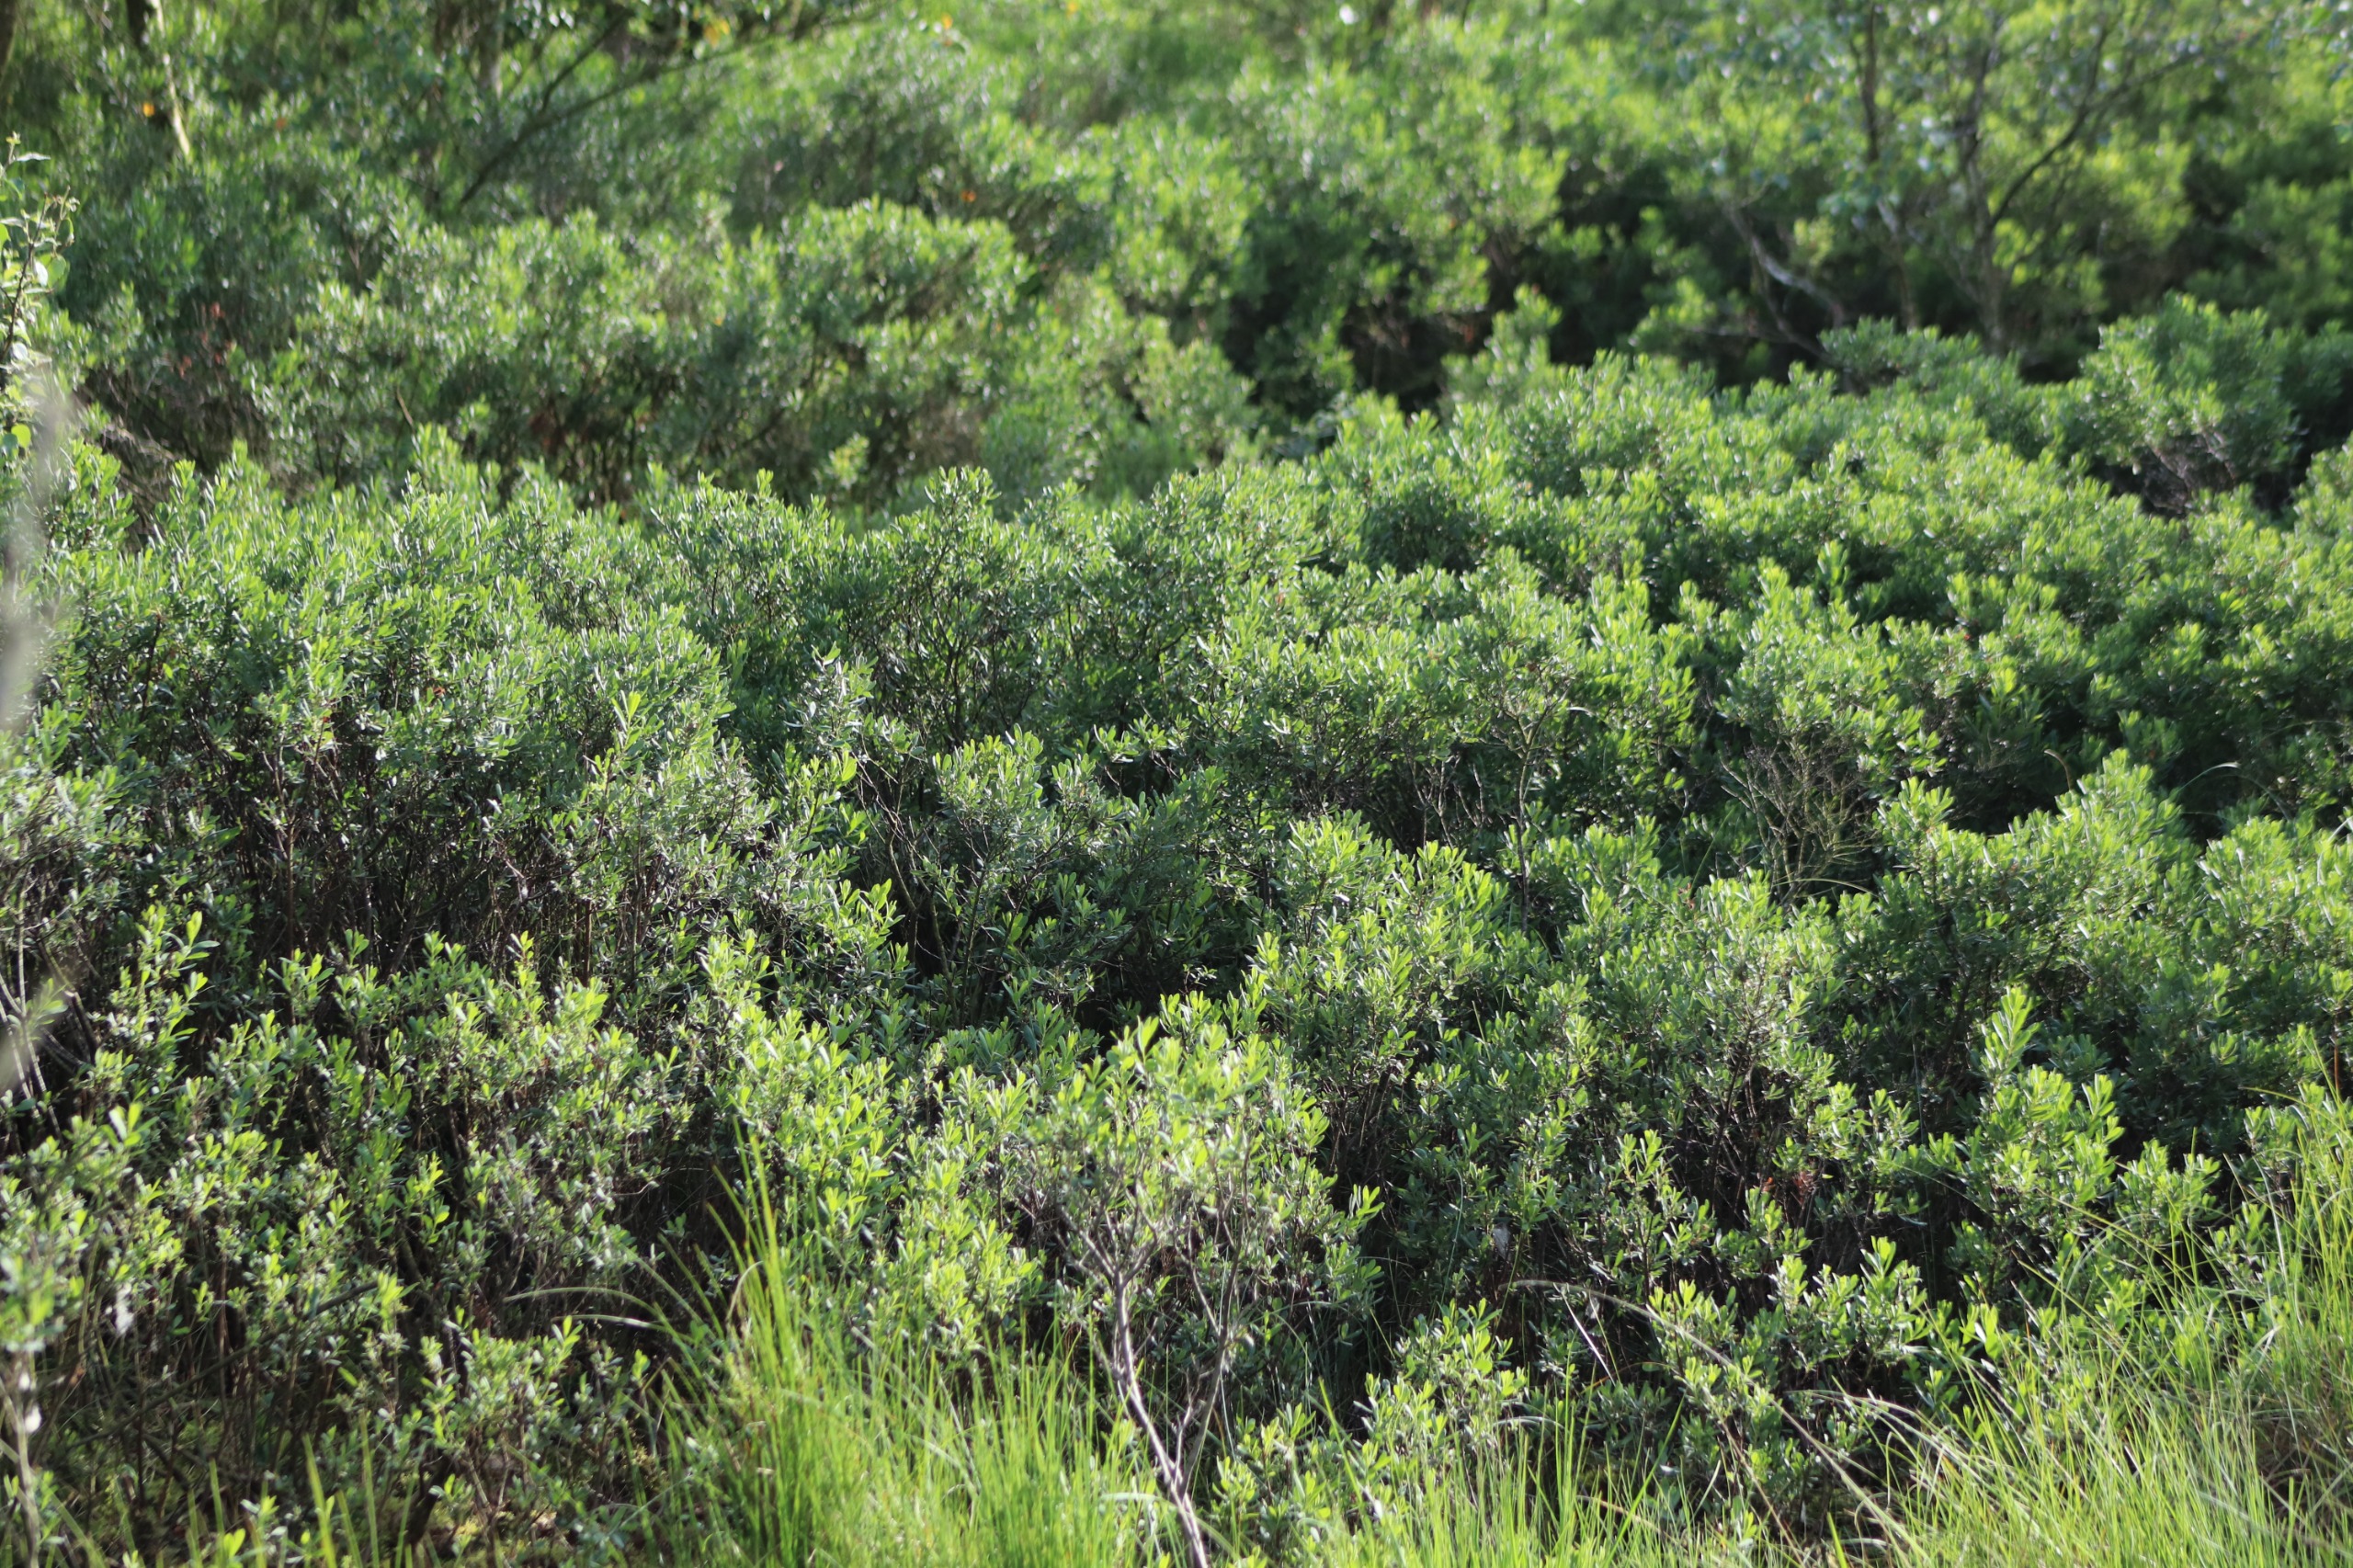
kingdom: Plantae
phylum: Tracheophyta
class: Magnoliopsida
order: Fagales
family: Myricaceae
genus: Myrica
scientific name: Myrica gale
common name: Pors
